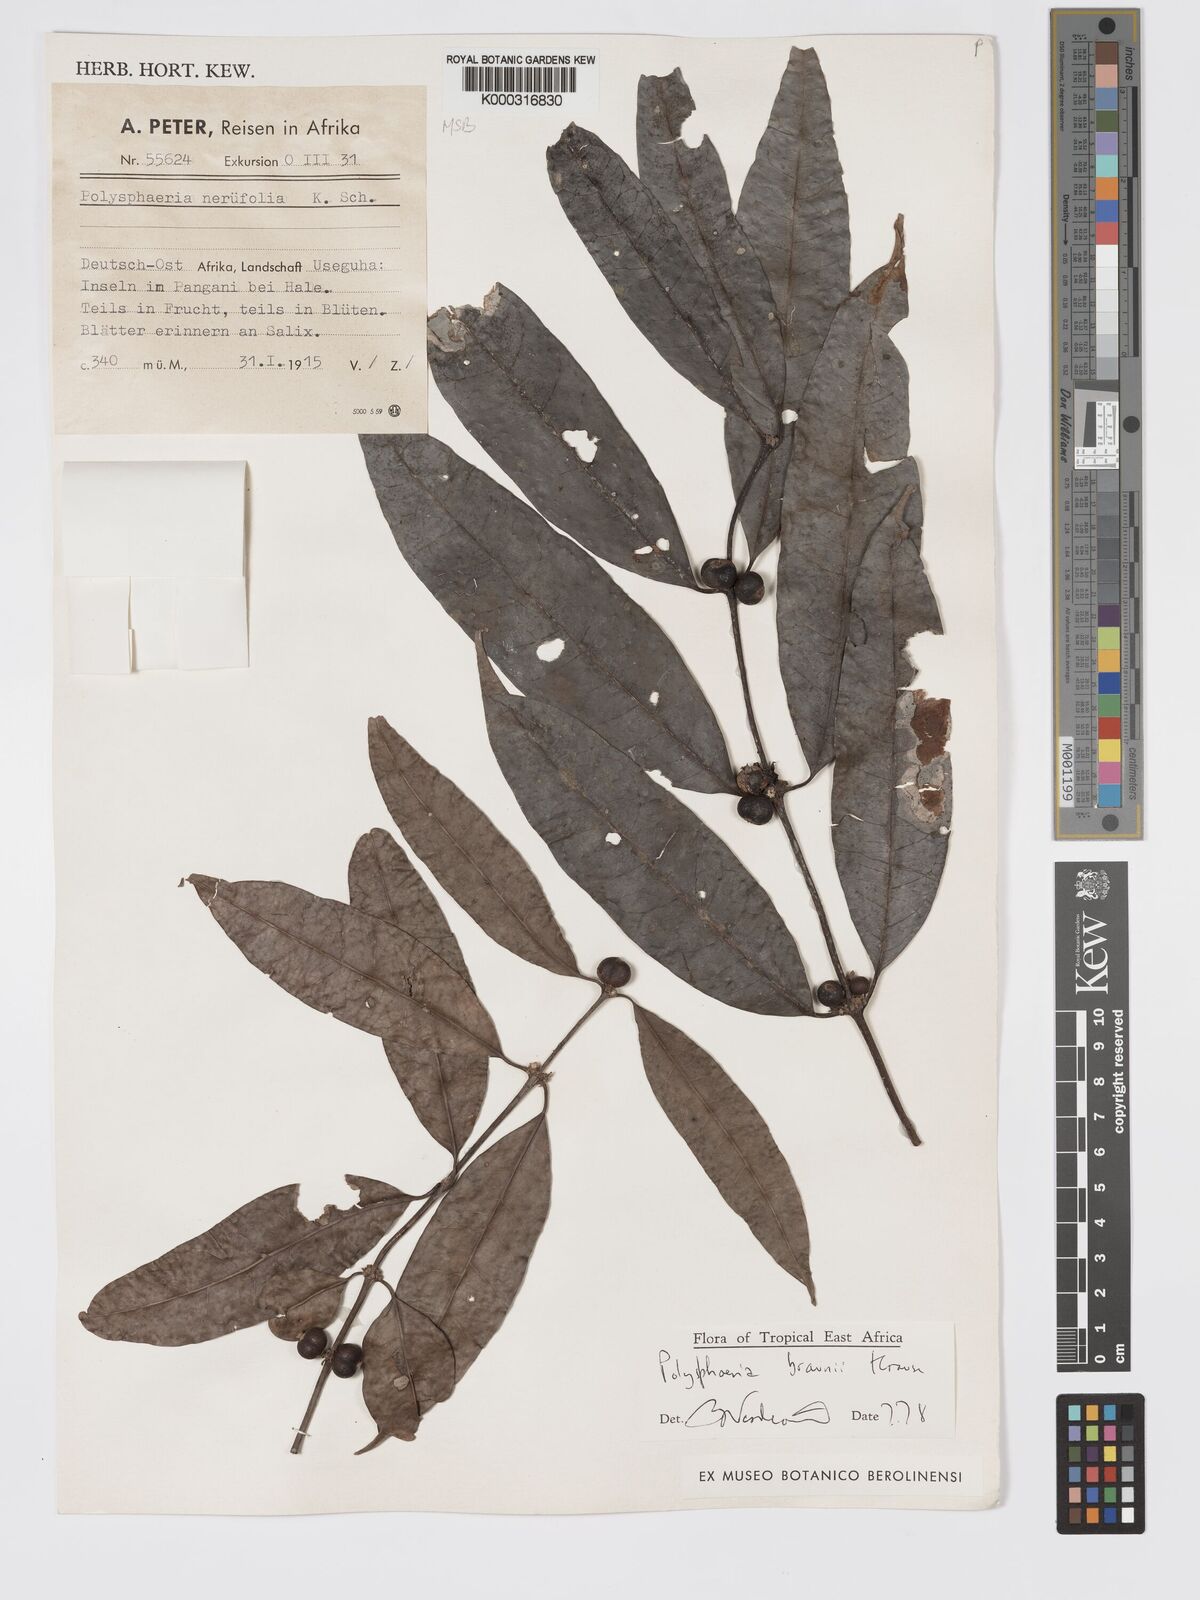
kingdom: Plantae
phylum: Tracheophyta
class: Magnoliopsida
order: Gentianales
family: Rubiaceae
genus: Polysphaeria
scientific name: Polysphaeria braunii
